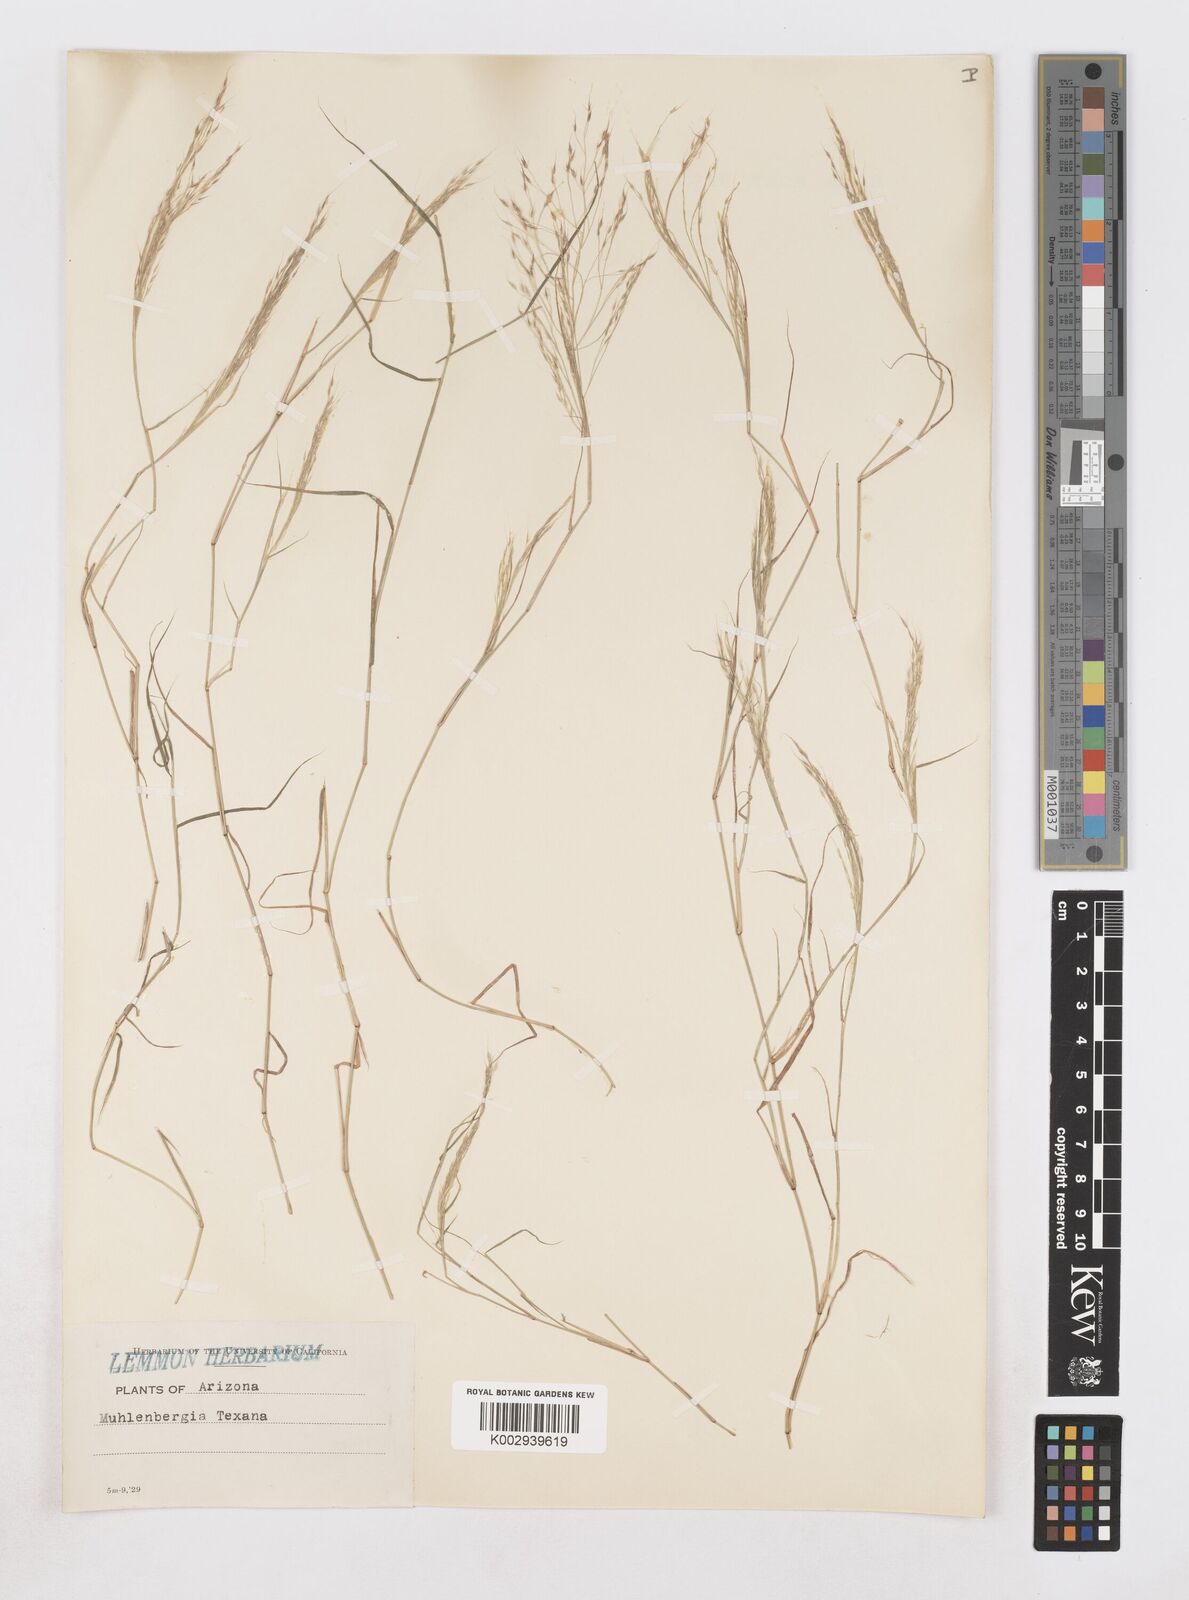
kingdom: Plantae
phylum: Tracheophyta
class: Liliopsida
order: Poales
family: Poaceae
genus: Muhlenbergia
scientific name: Muhlenbergia porteri
